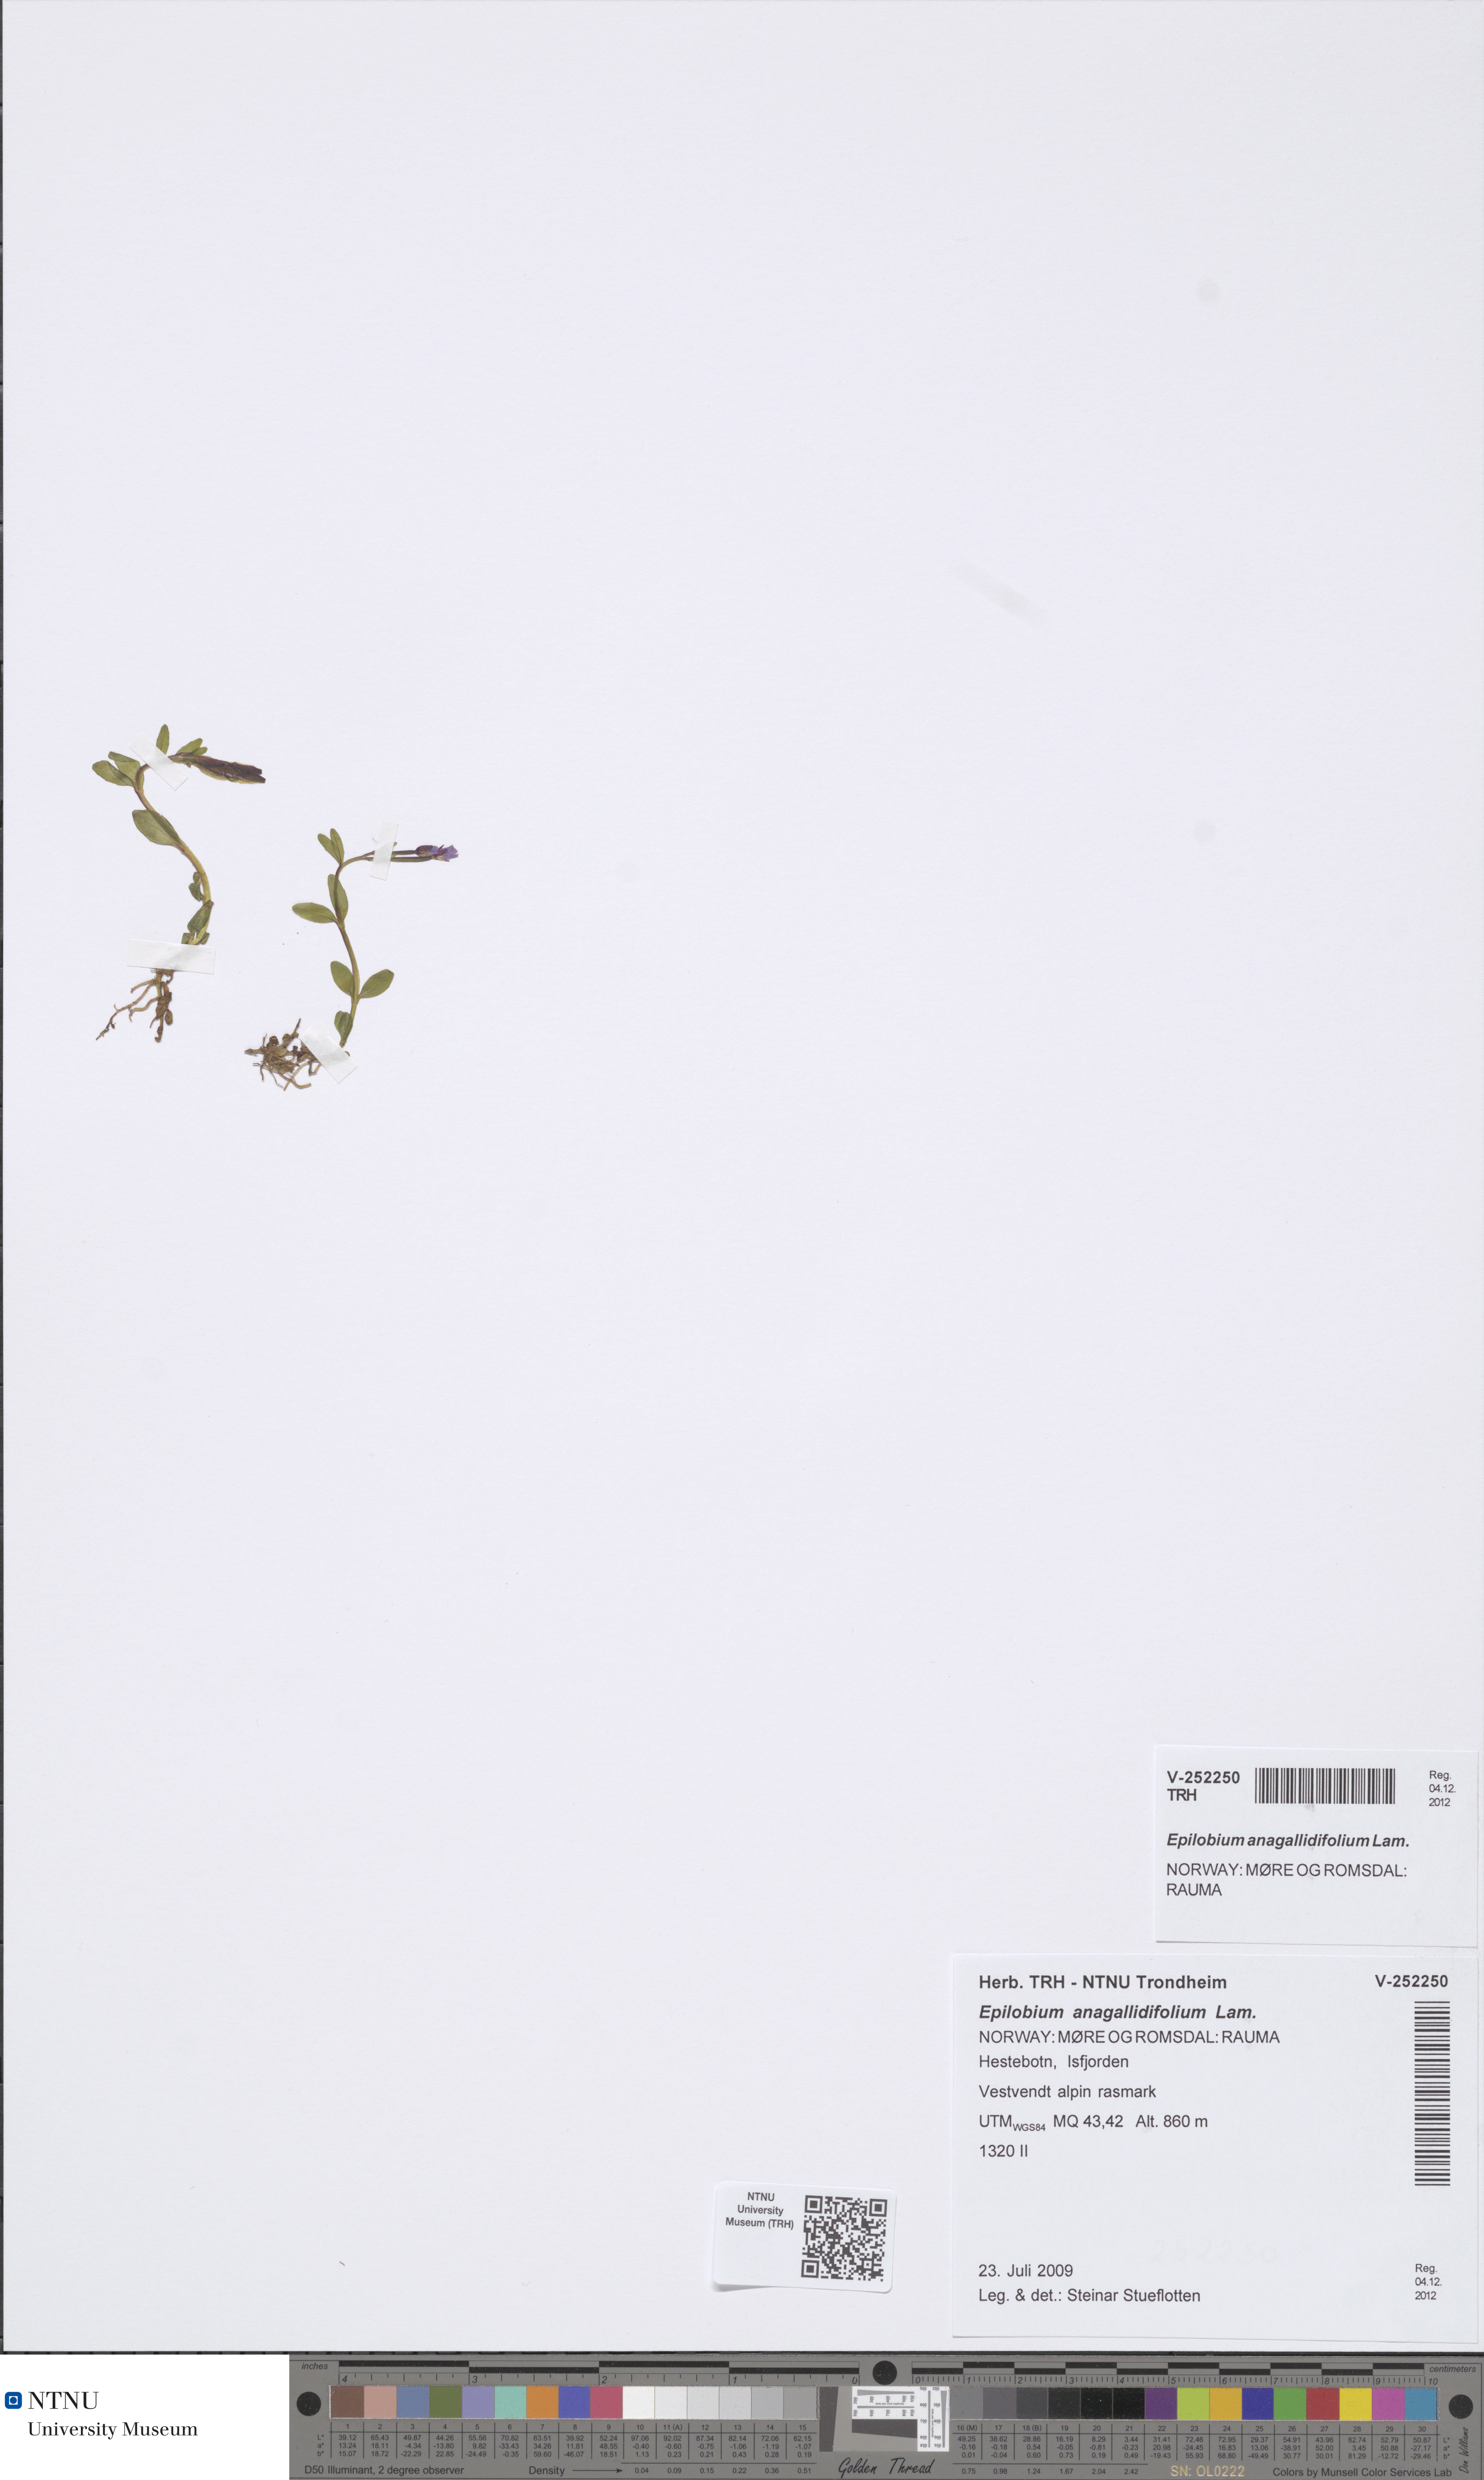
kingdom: Plantae
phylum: Tracheophyta
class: Magnoliopsida
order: Myrtales
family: Onagraceae
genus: Epilobium
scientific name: Epilobium anagallidifolium
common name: Alpine willowherb
